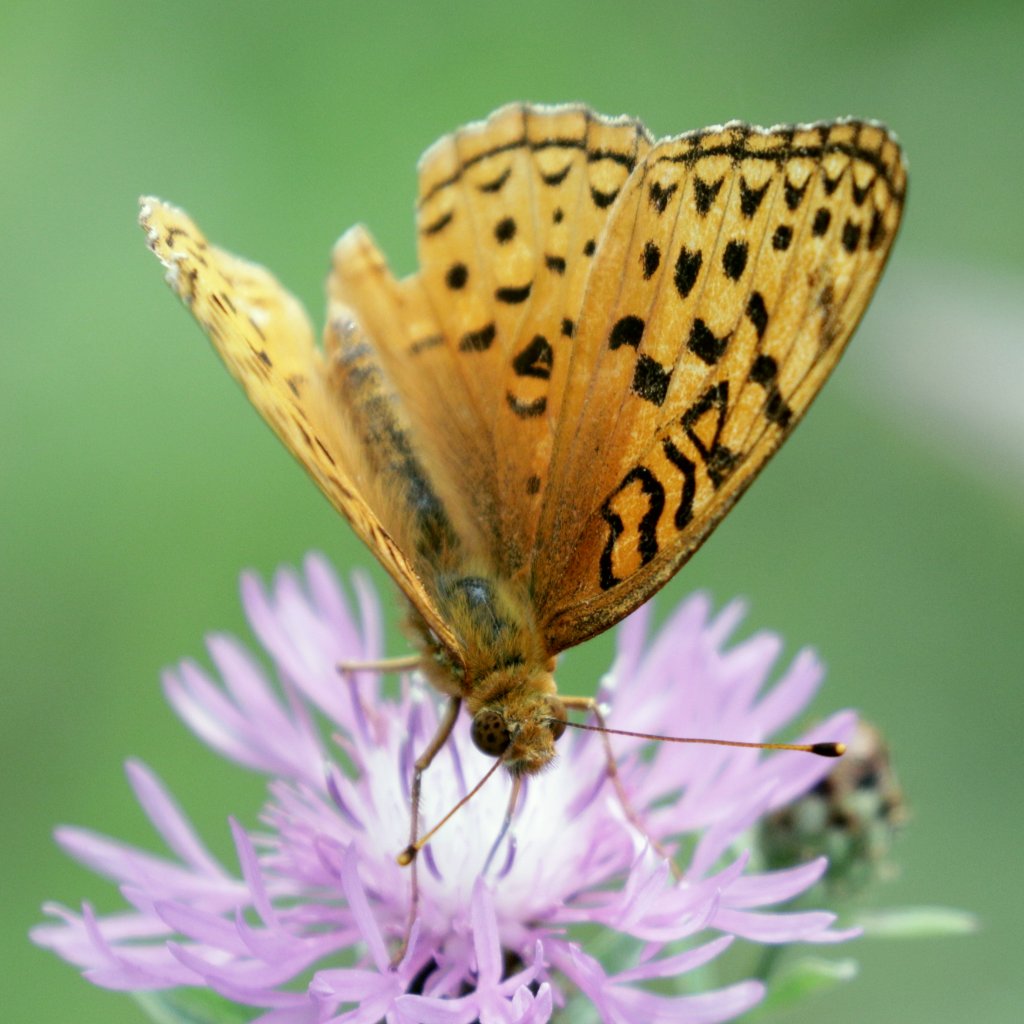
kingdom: Animalia
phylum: Arthropoda
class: Insecta
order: Lepidoptera
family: Nymphalidae
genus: Speyeria
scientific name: Speyeria
